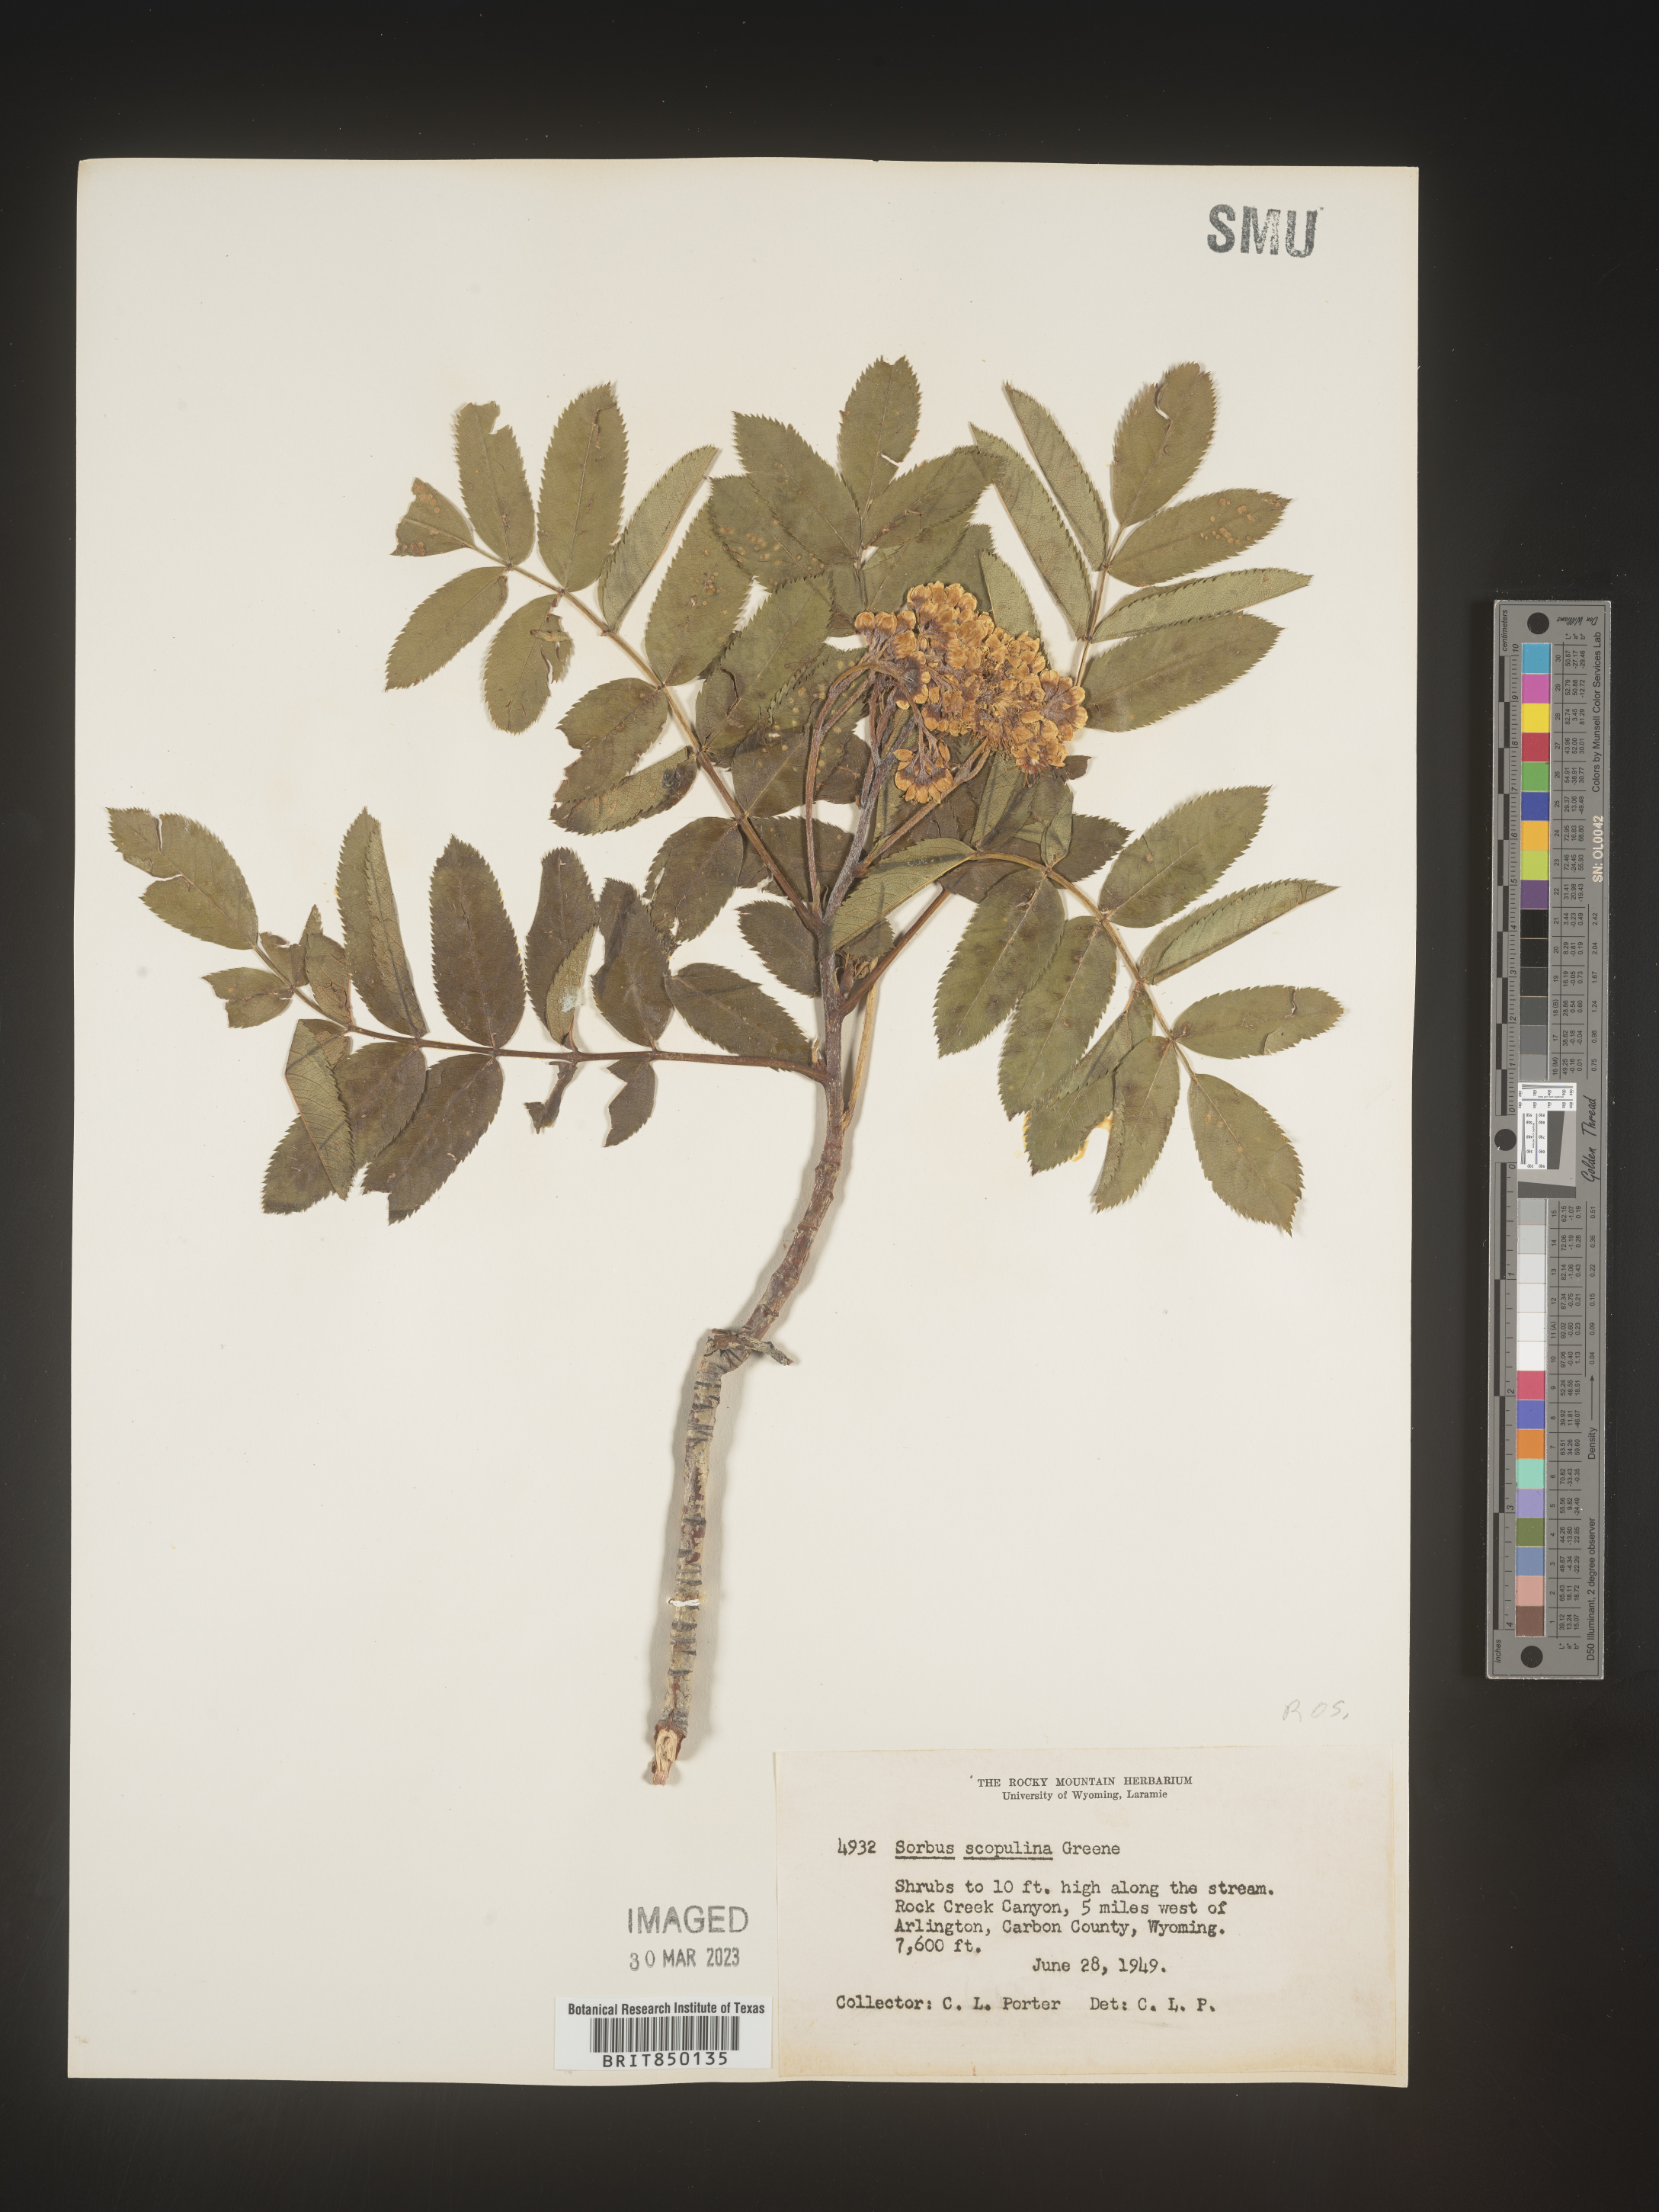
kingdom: Plantae
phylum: Tracheophyta
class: Magnoliopsida
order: Rosales
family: Rosaceae
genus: Sorbus
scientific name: Sorbus scopulina
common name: Greene's mountain-ash
